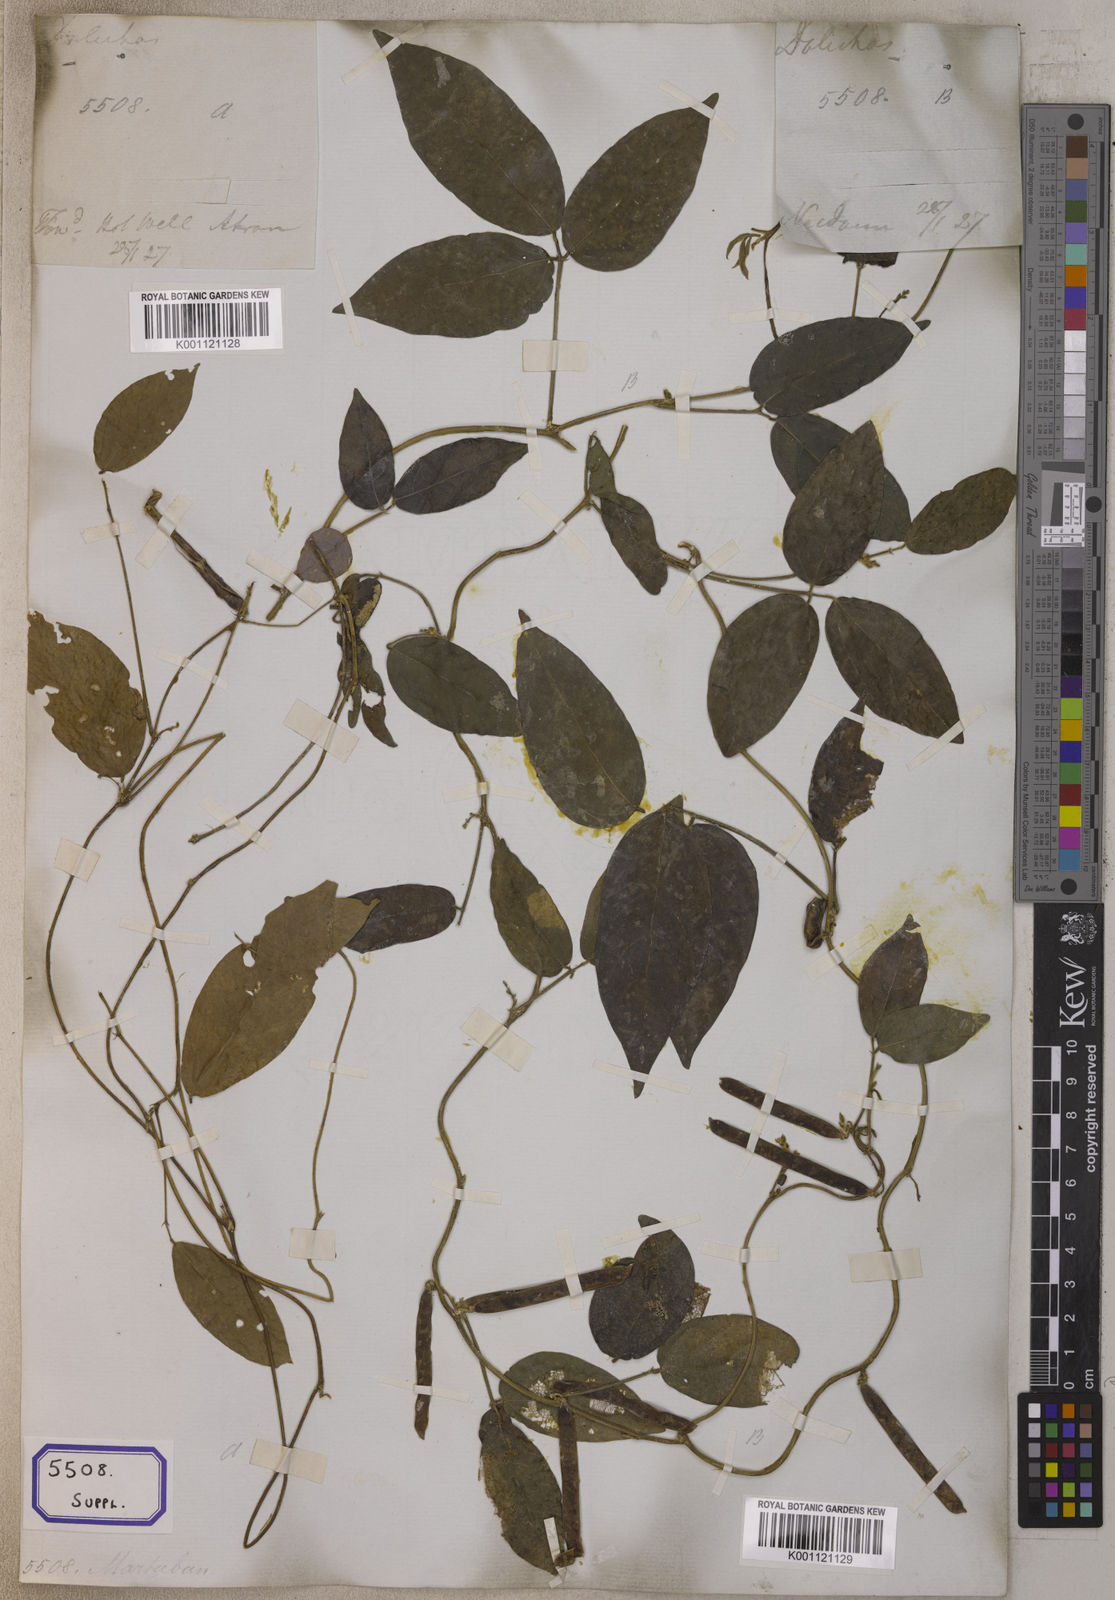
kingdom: Plantae
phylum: Tracheophyta
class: Magnoliopsida
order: Fabales
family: Fabaceae
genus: Teramnus
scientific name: Teramnus labialis
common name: Blue wiss
